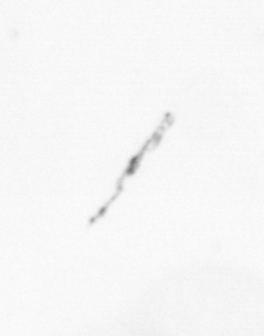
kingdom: Chromista
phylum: Ochrophyta
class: Bacillariophyceae
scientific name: Bacillariophyceae
